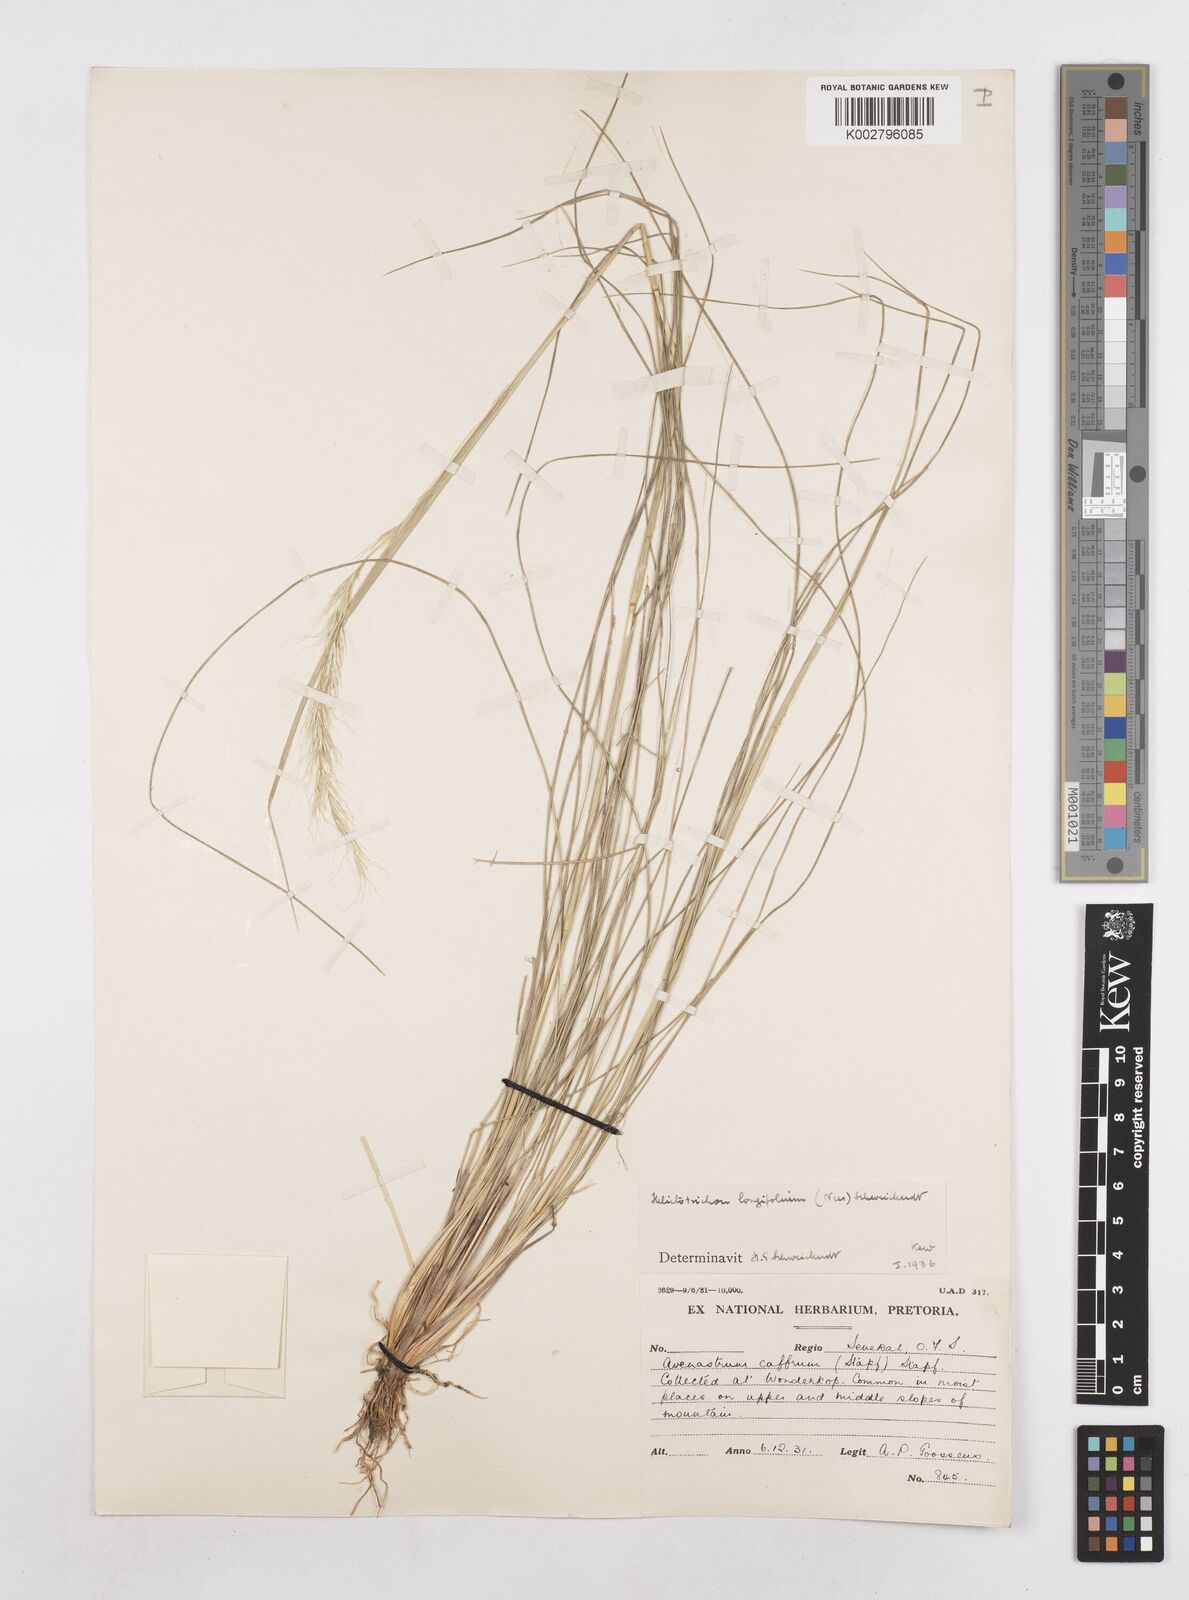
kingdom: Plantae
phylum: Tracheophyta
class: Liliopsida
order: Poales
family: Poaceae
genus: Trisetopsis
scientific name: Trisetopsis longifolia
